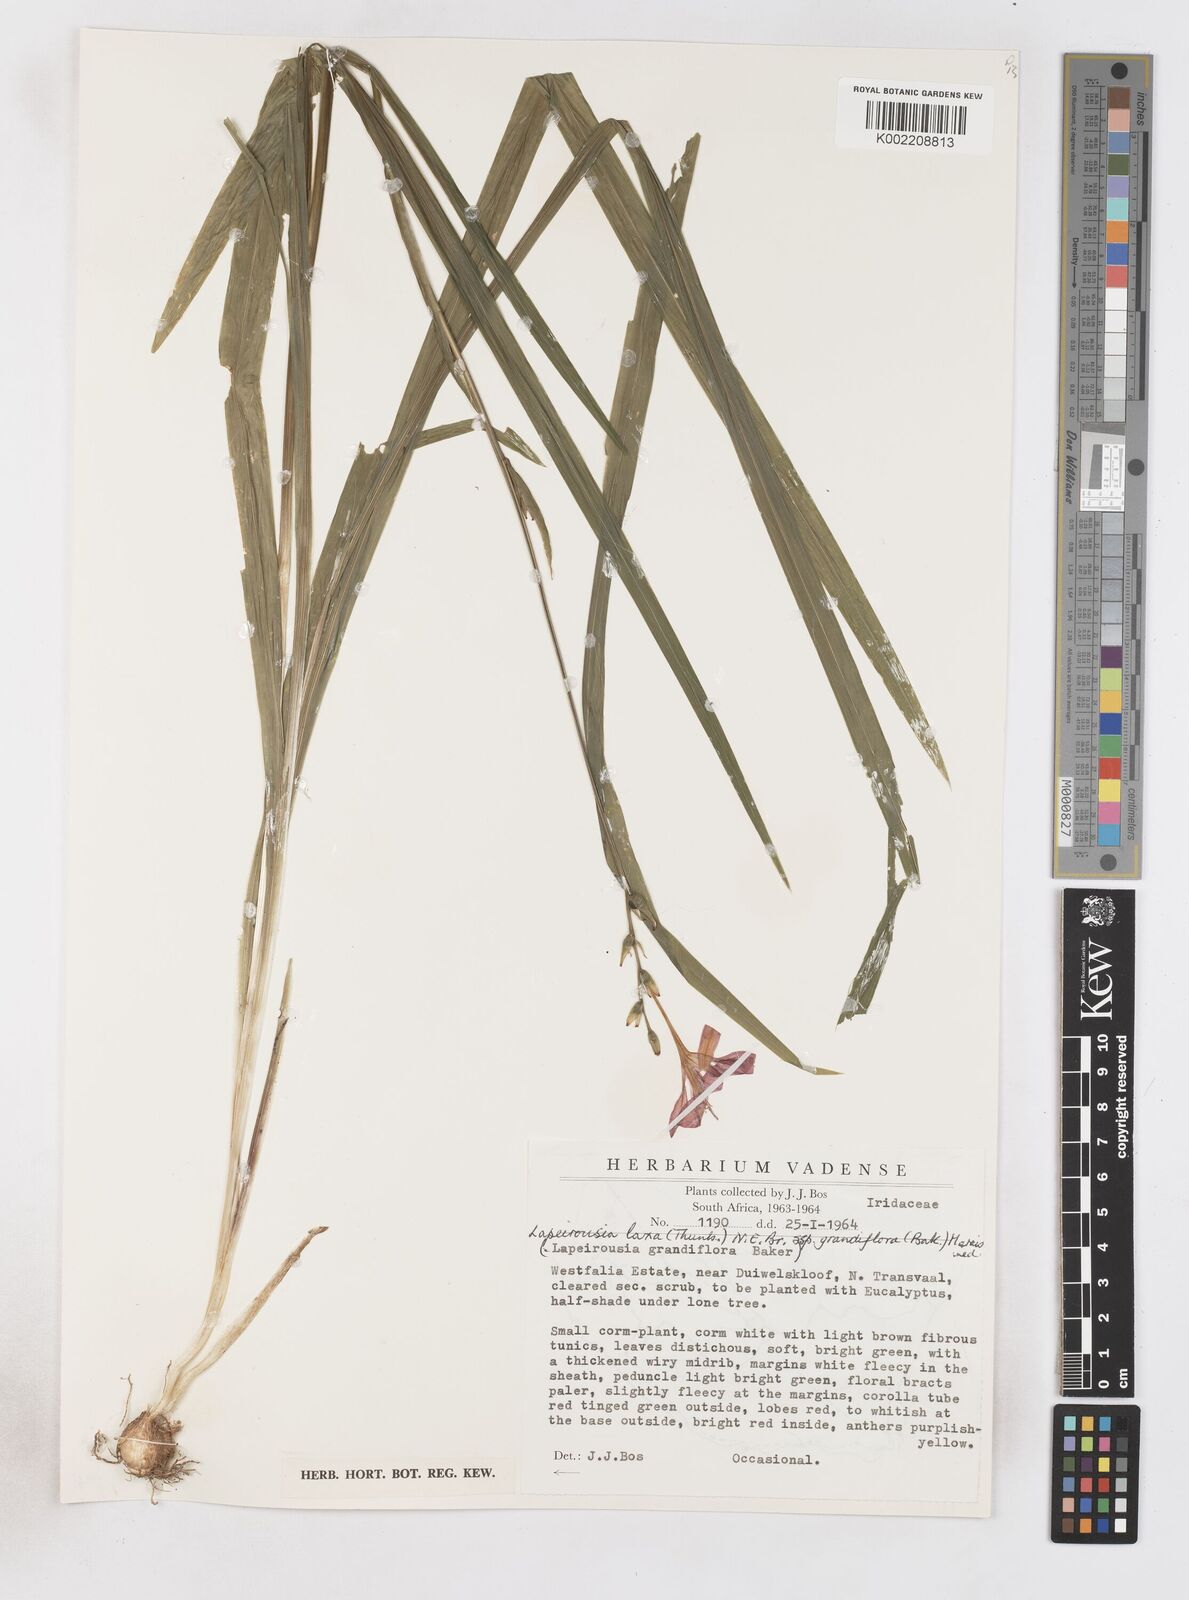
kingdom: Plantae
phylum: Tracheophyta
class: Liliopsida
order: Asparagales
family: Iridaceae
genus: Freesia
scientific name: Freesia grandiflora
